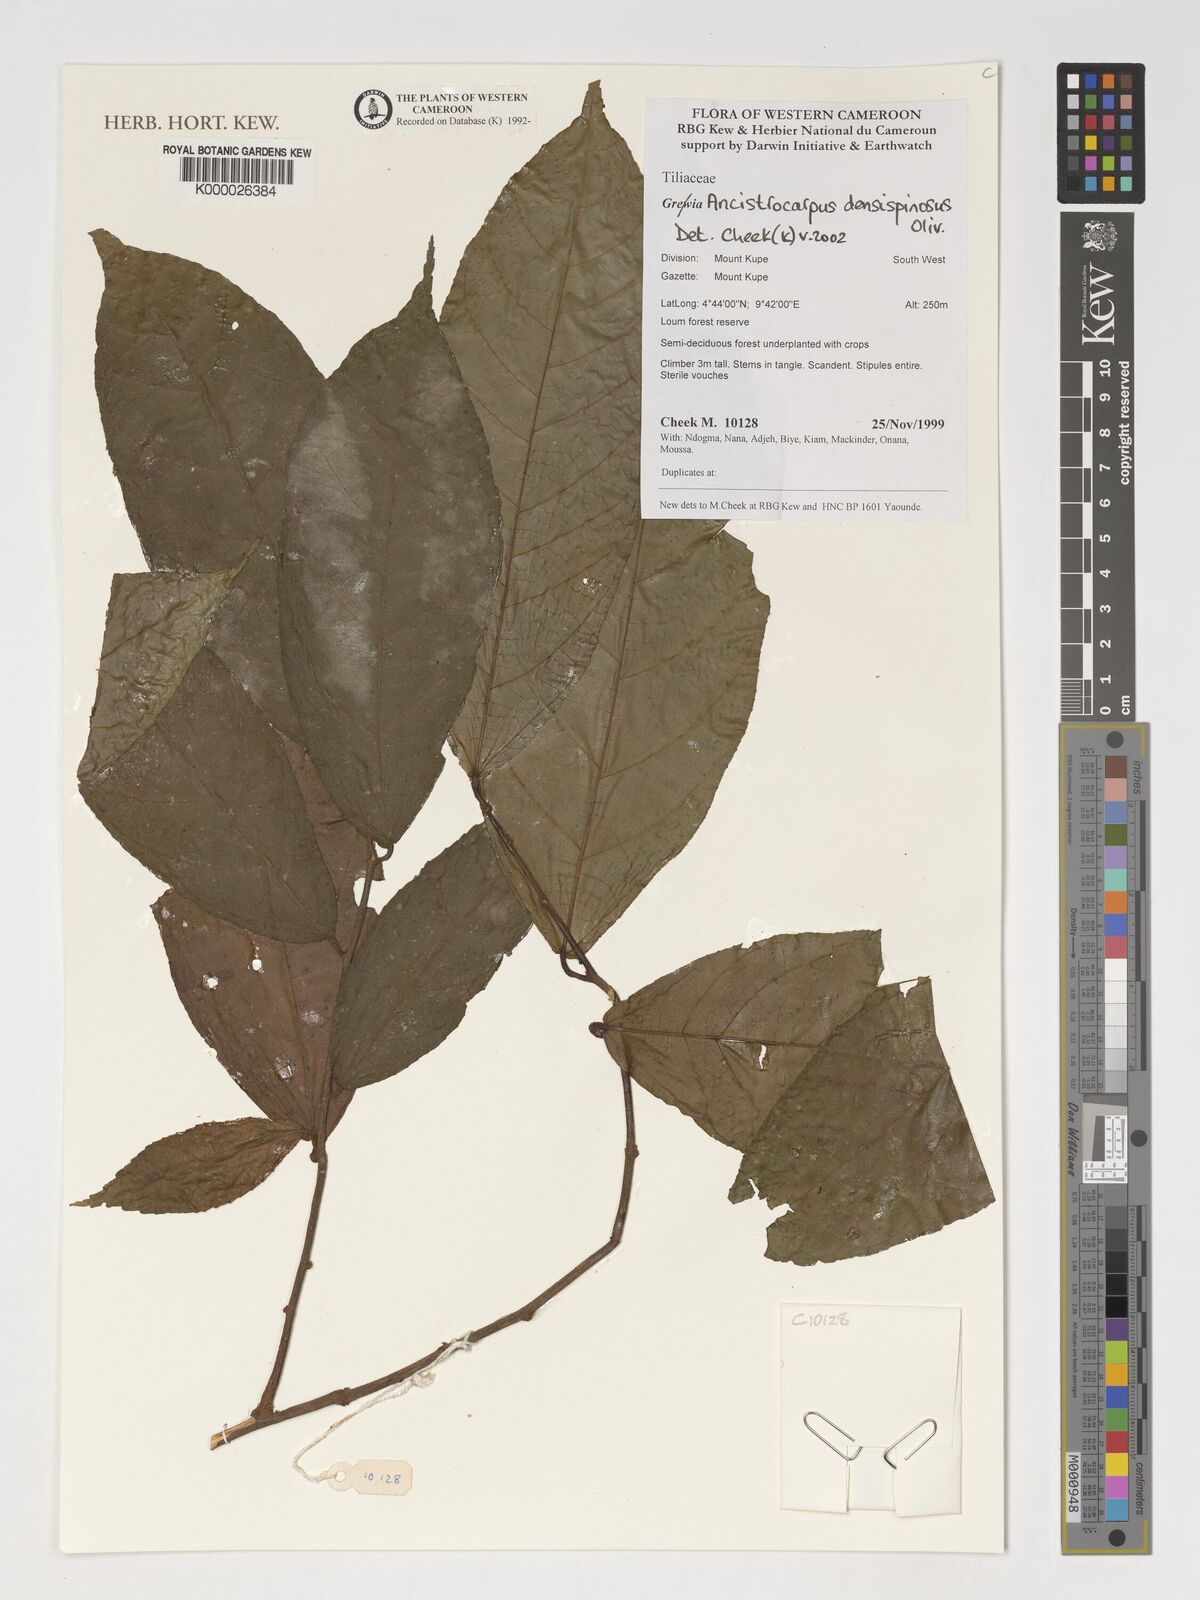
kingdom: Plantae
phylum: Tracheophyta
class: Magnoliopsida
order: Malvales
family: Malvaceae
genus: Ancistrocarpus
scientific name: Ancistrocarpus densispinosus
